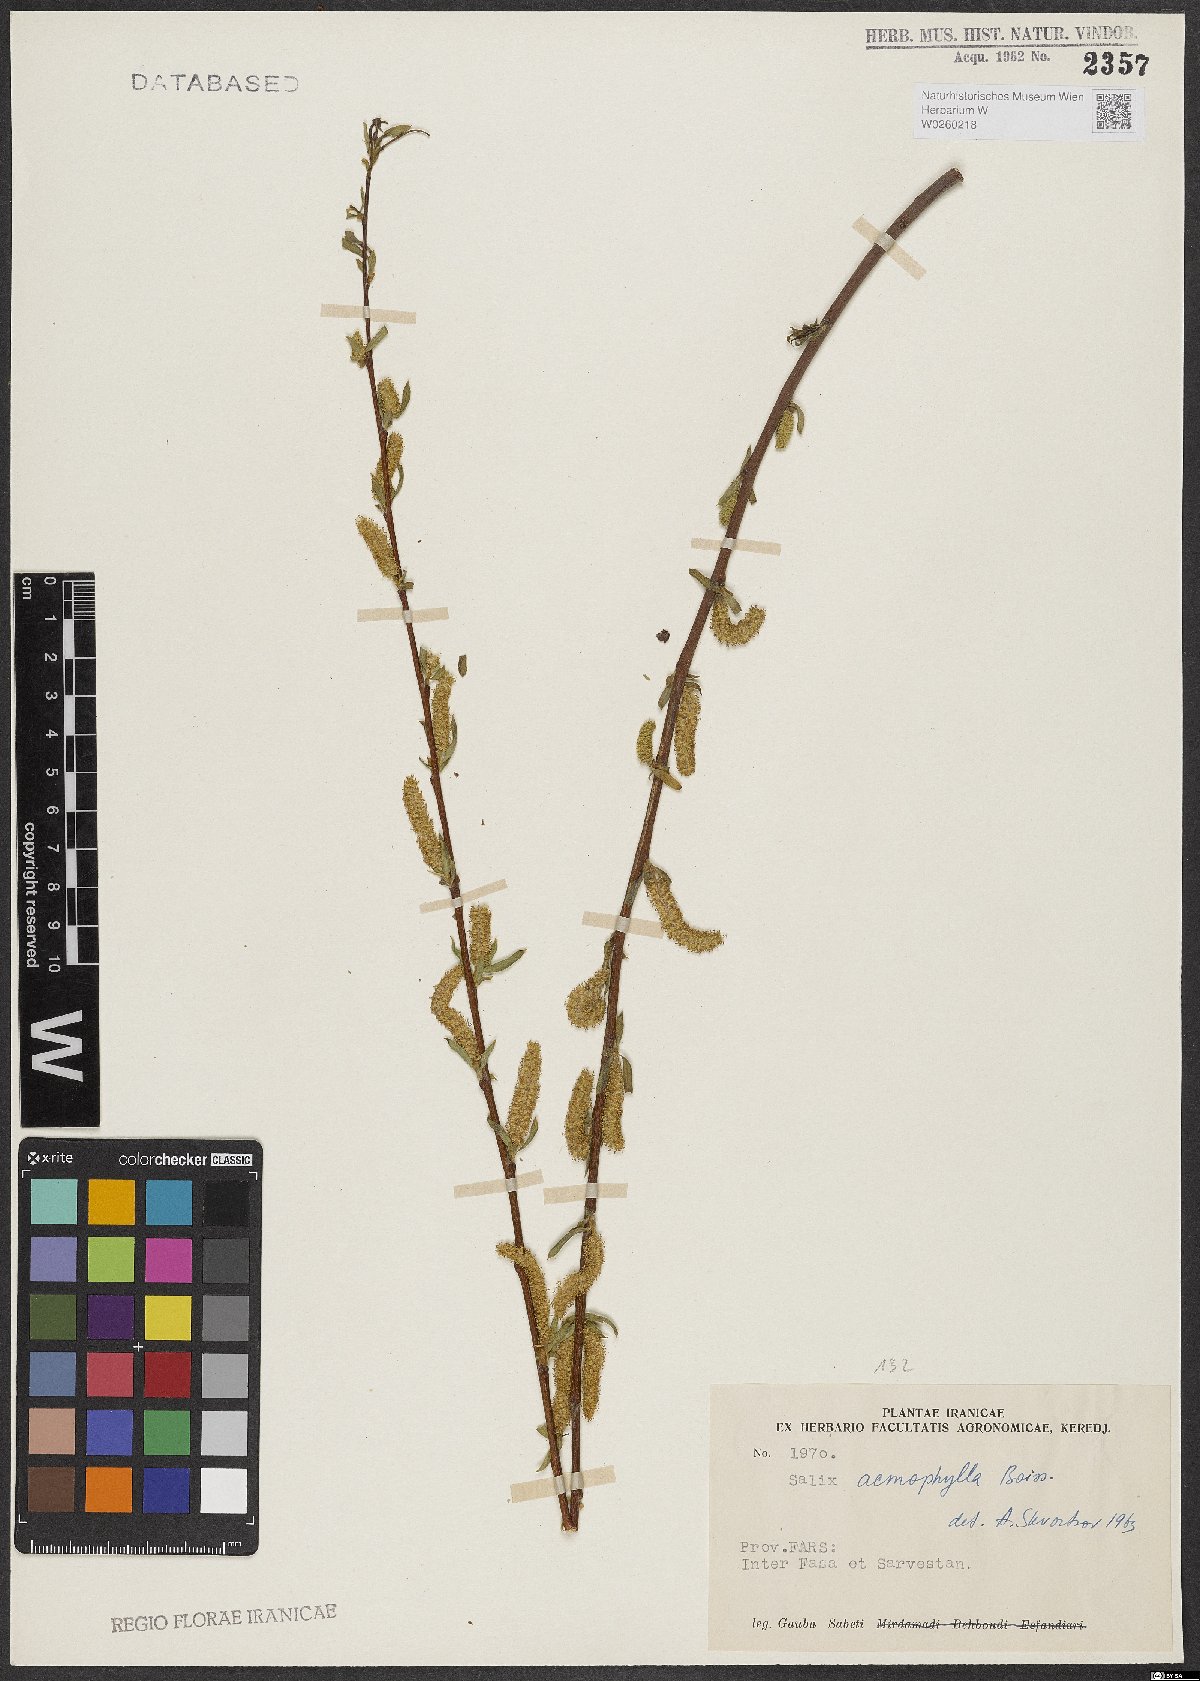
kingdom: Plantae
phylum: Tracheophyta
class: Magnoliopsida
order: Malpighiales
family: Salicaceae
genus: Salix
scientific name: Salix acmophylla
